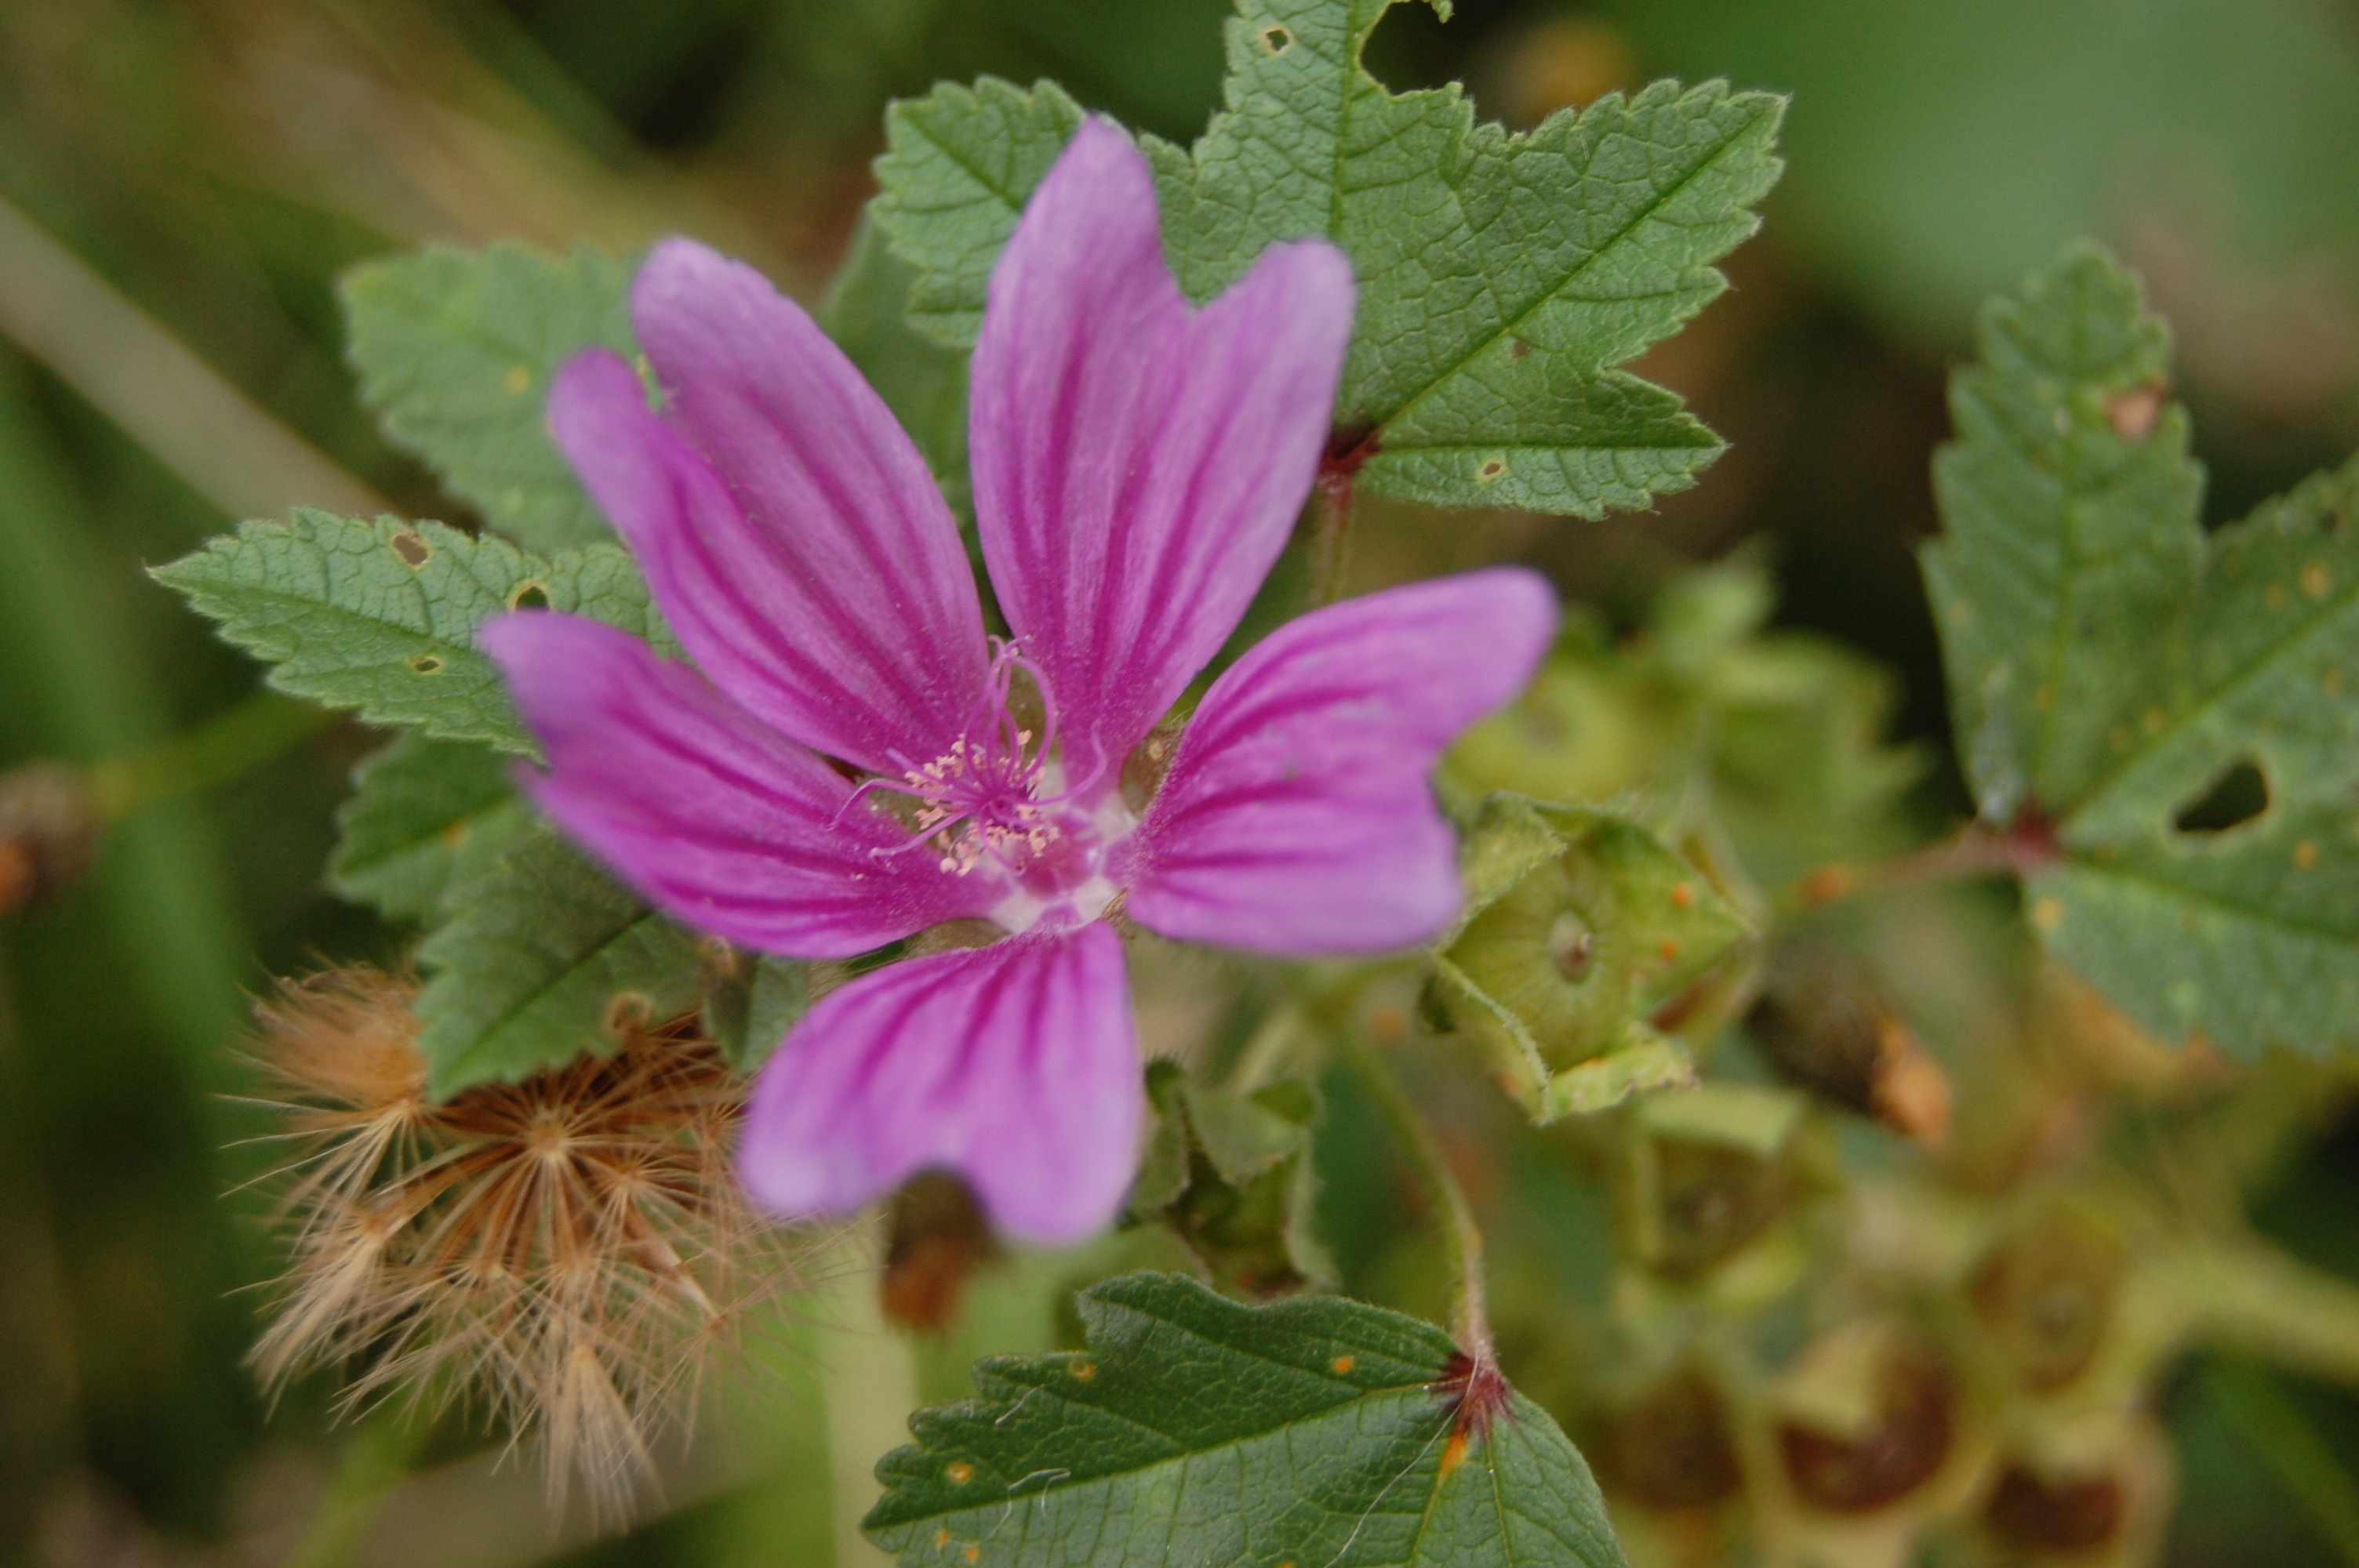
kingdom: Plantae
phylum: Tracheophyta
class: Magnoliopsida
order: Malvales
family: Malvaceae
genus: Malva
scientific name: Malva sylvestris
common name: Common mallow
